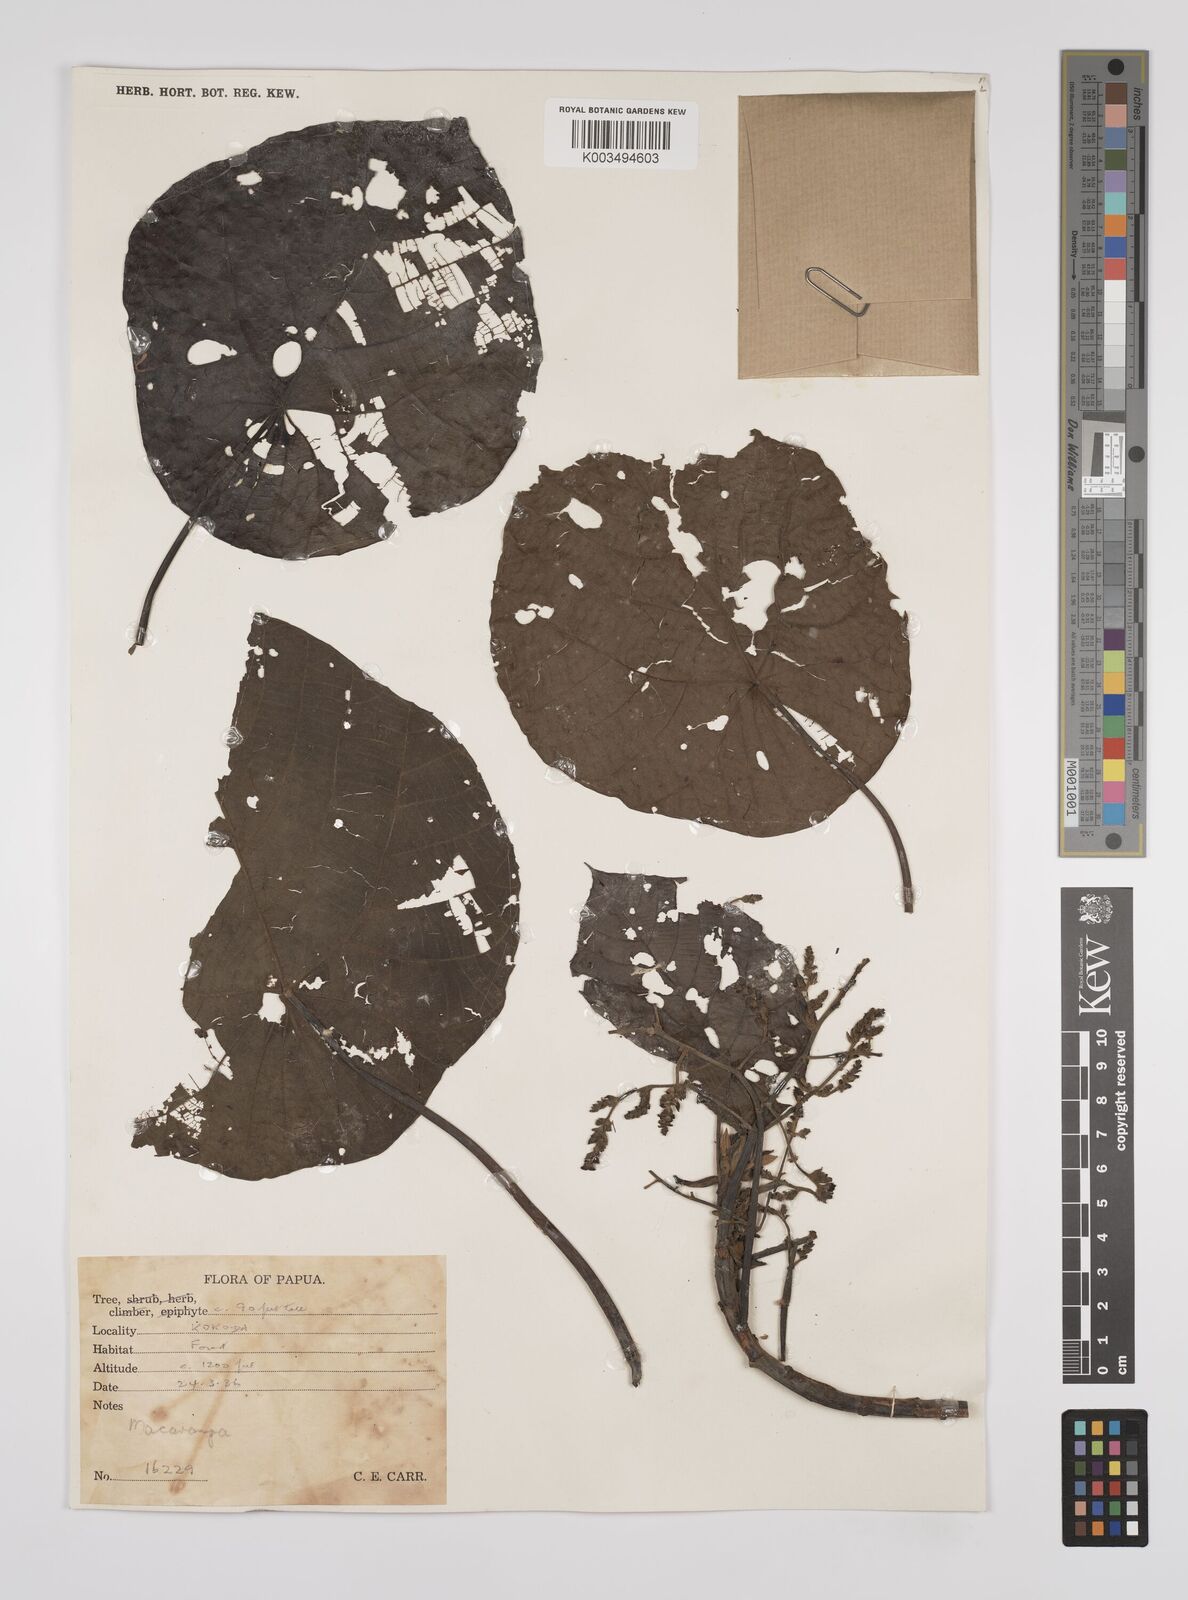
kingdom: Plantae
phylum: Tracheophyta
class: Magnoliopsida
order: Malpighiales
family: Euphorbiaceae
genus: Macaranga
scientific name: Macaranga tanarius
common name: Parasol leaf tree
